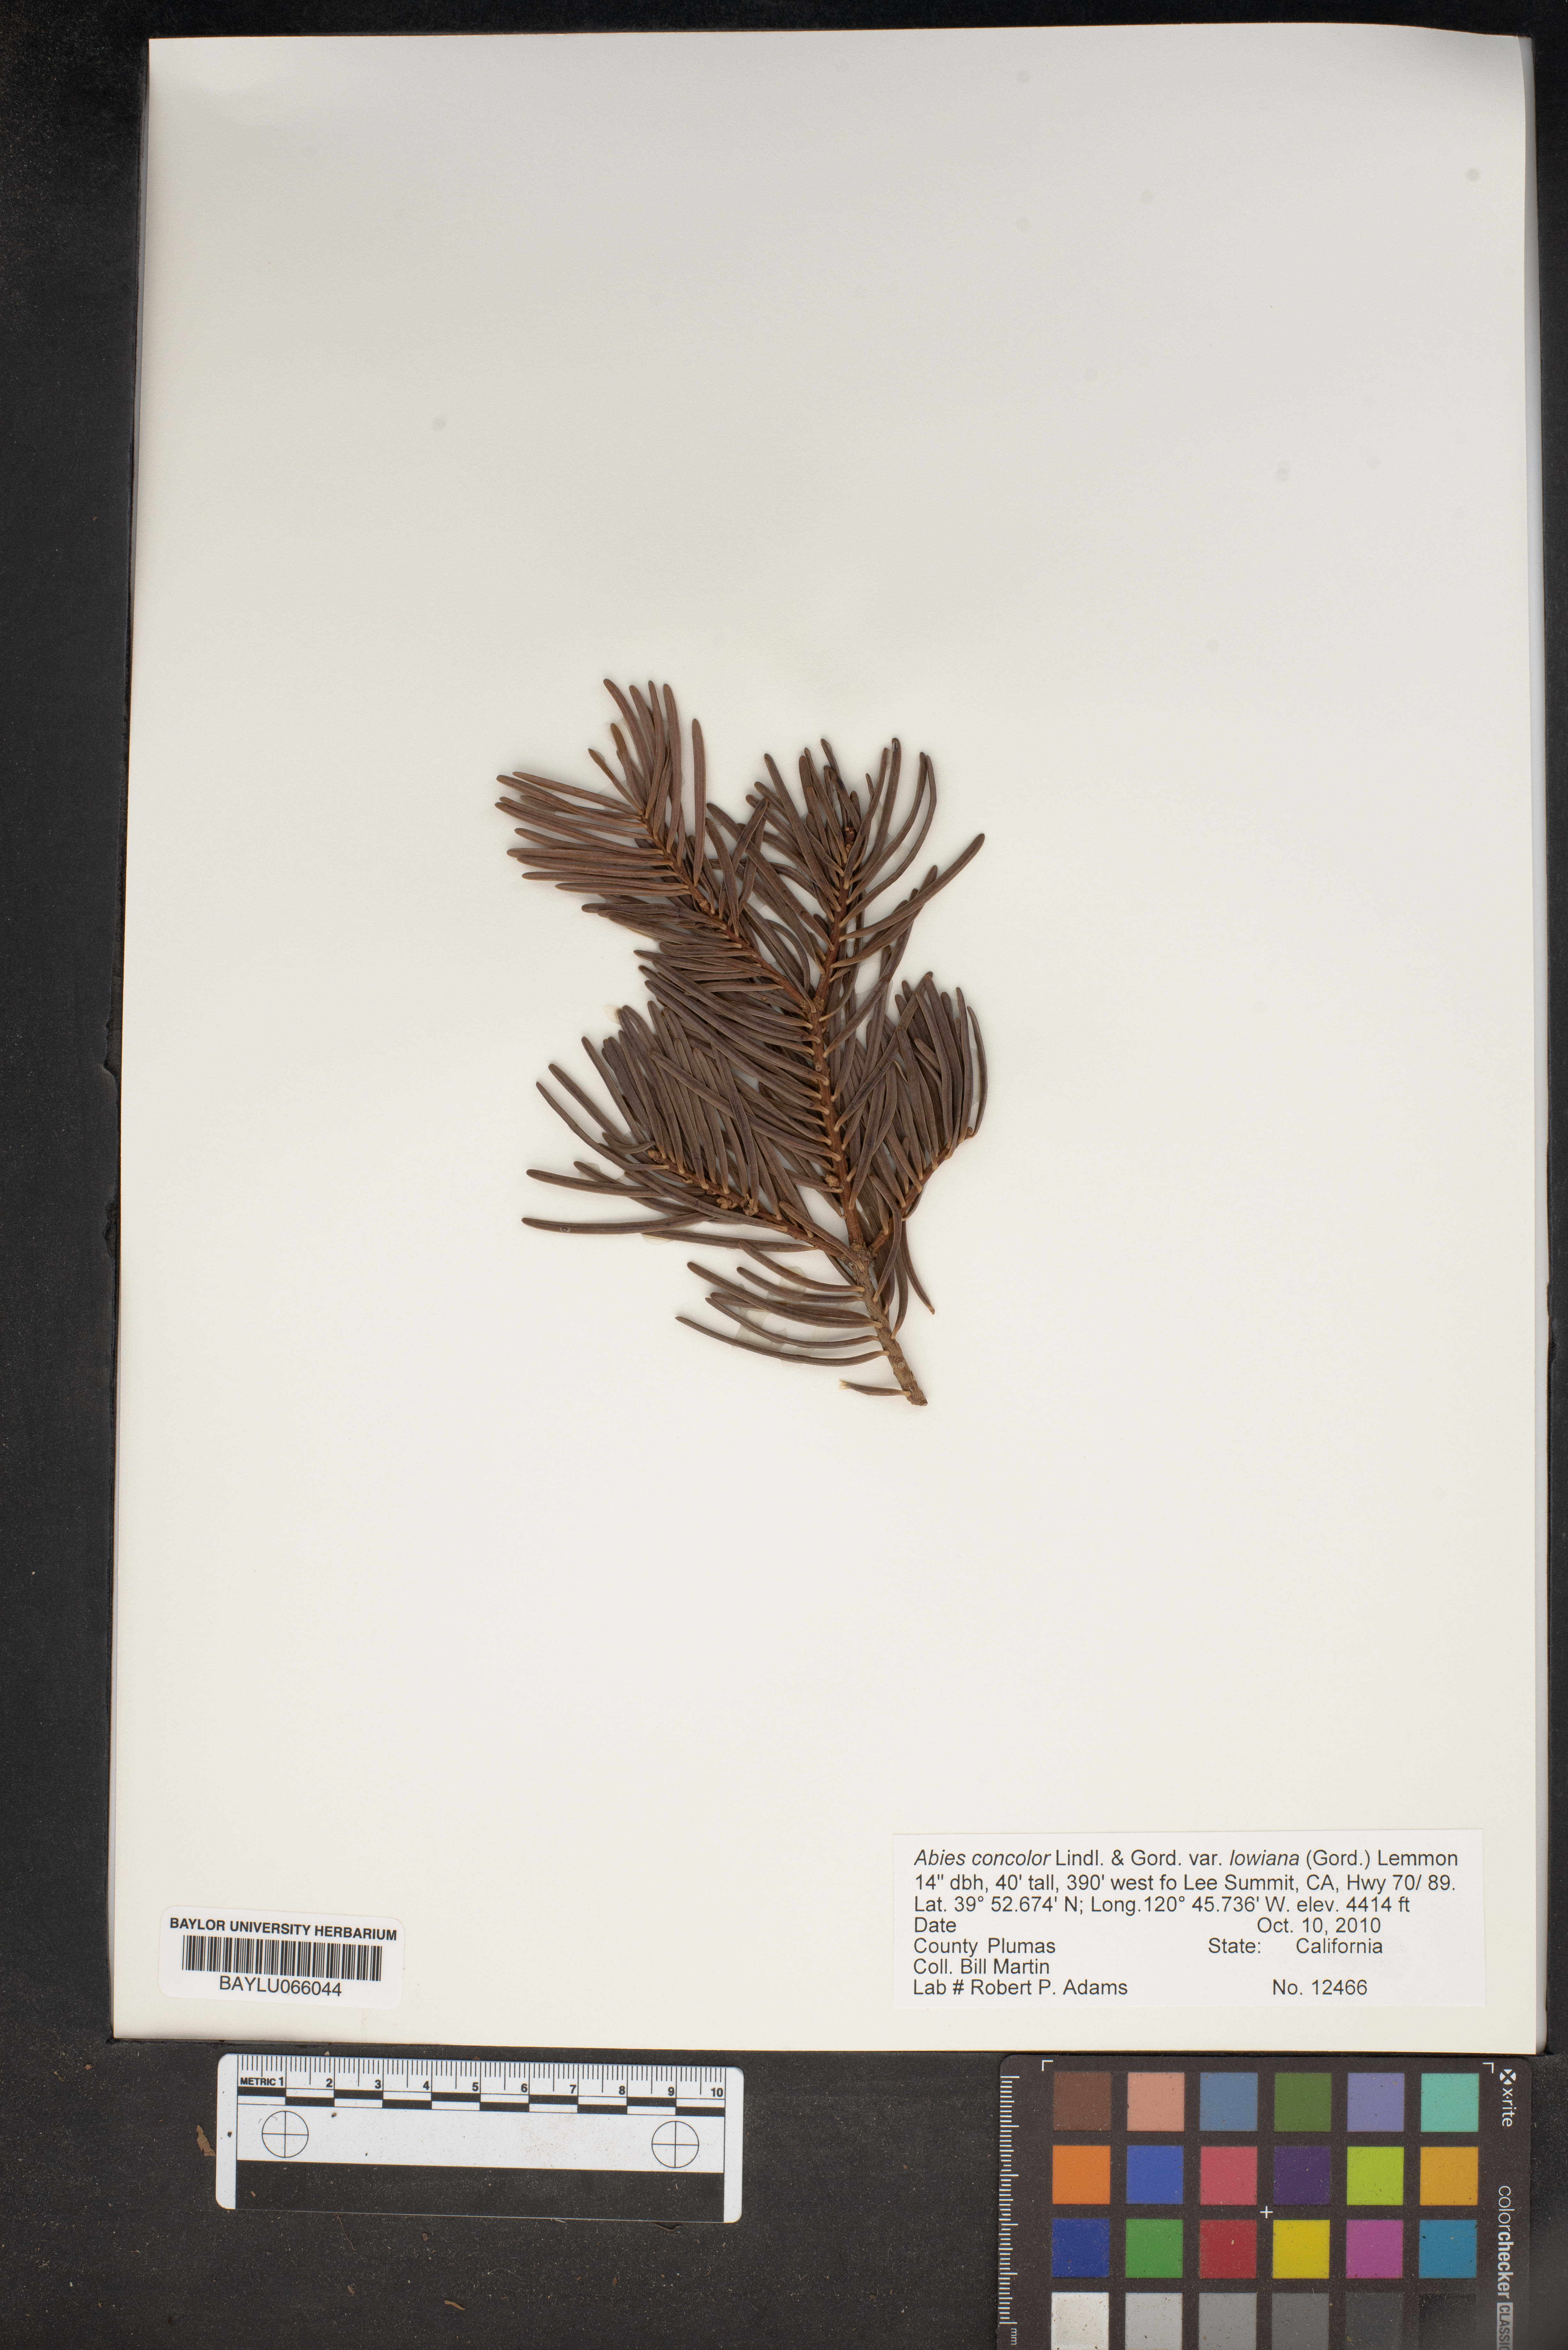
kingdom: Plantae
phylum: Tracheophyta
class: Pinopsida
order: Pinales
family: Pinaceae
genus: Abies
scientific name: Abies concolor
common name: Colorado fir
